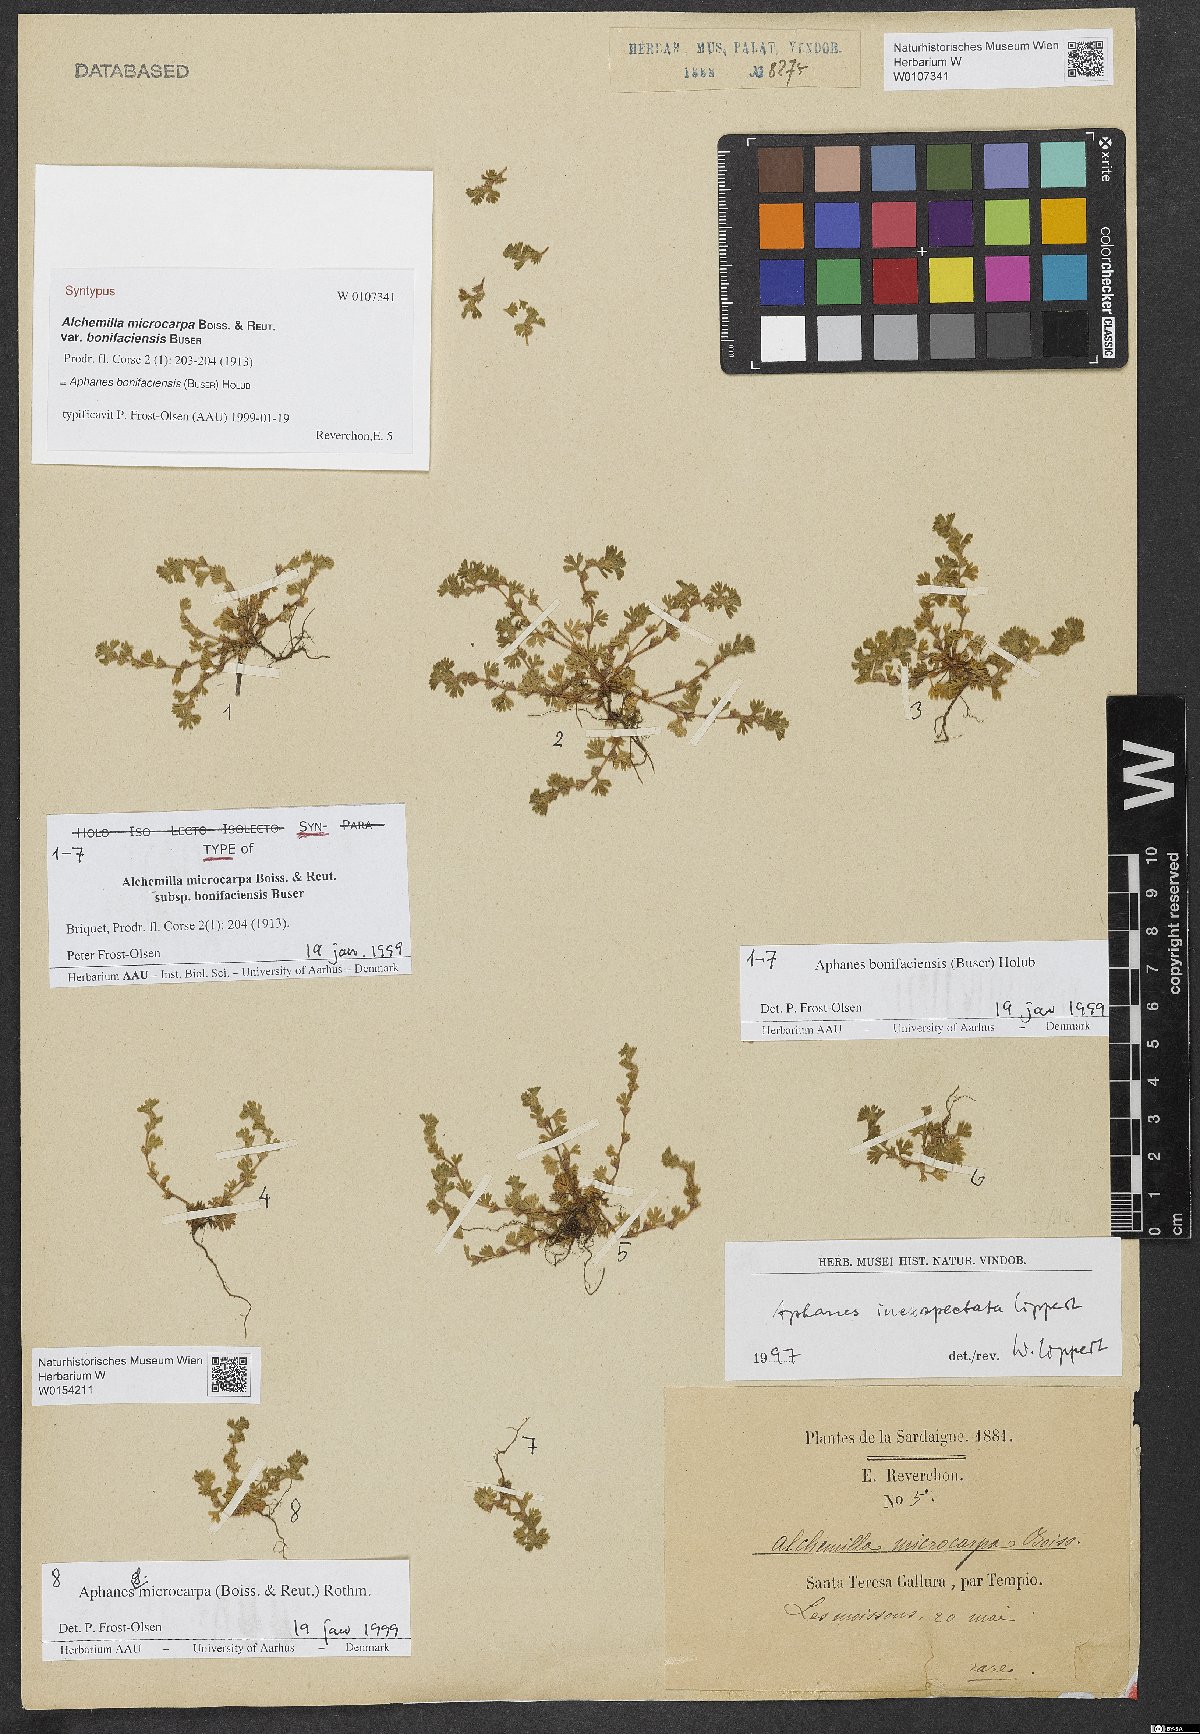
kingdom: Plantae
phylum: Tracheophyta
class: Magnoliopsida
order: Rosales
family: Rosaceae
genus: Aphanes
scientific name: Aphanes minutiflora
